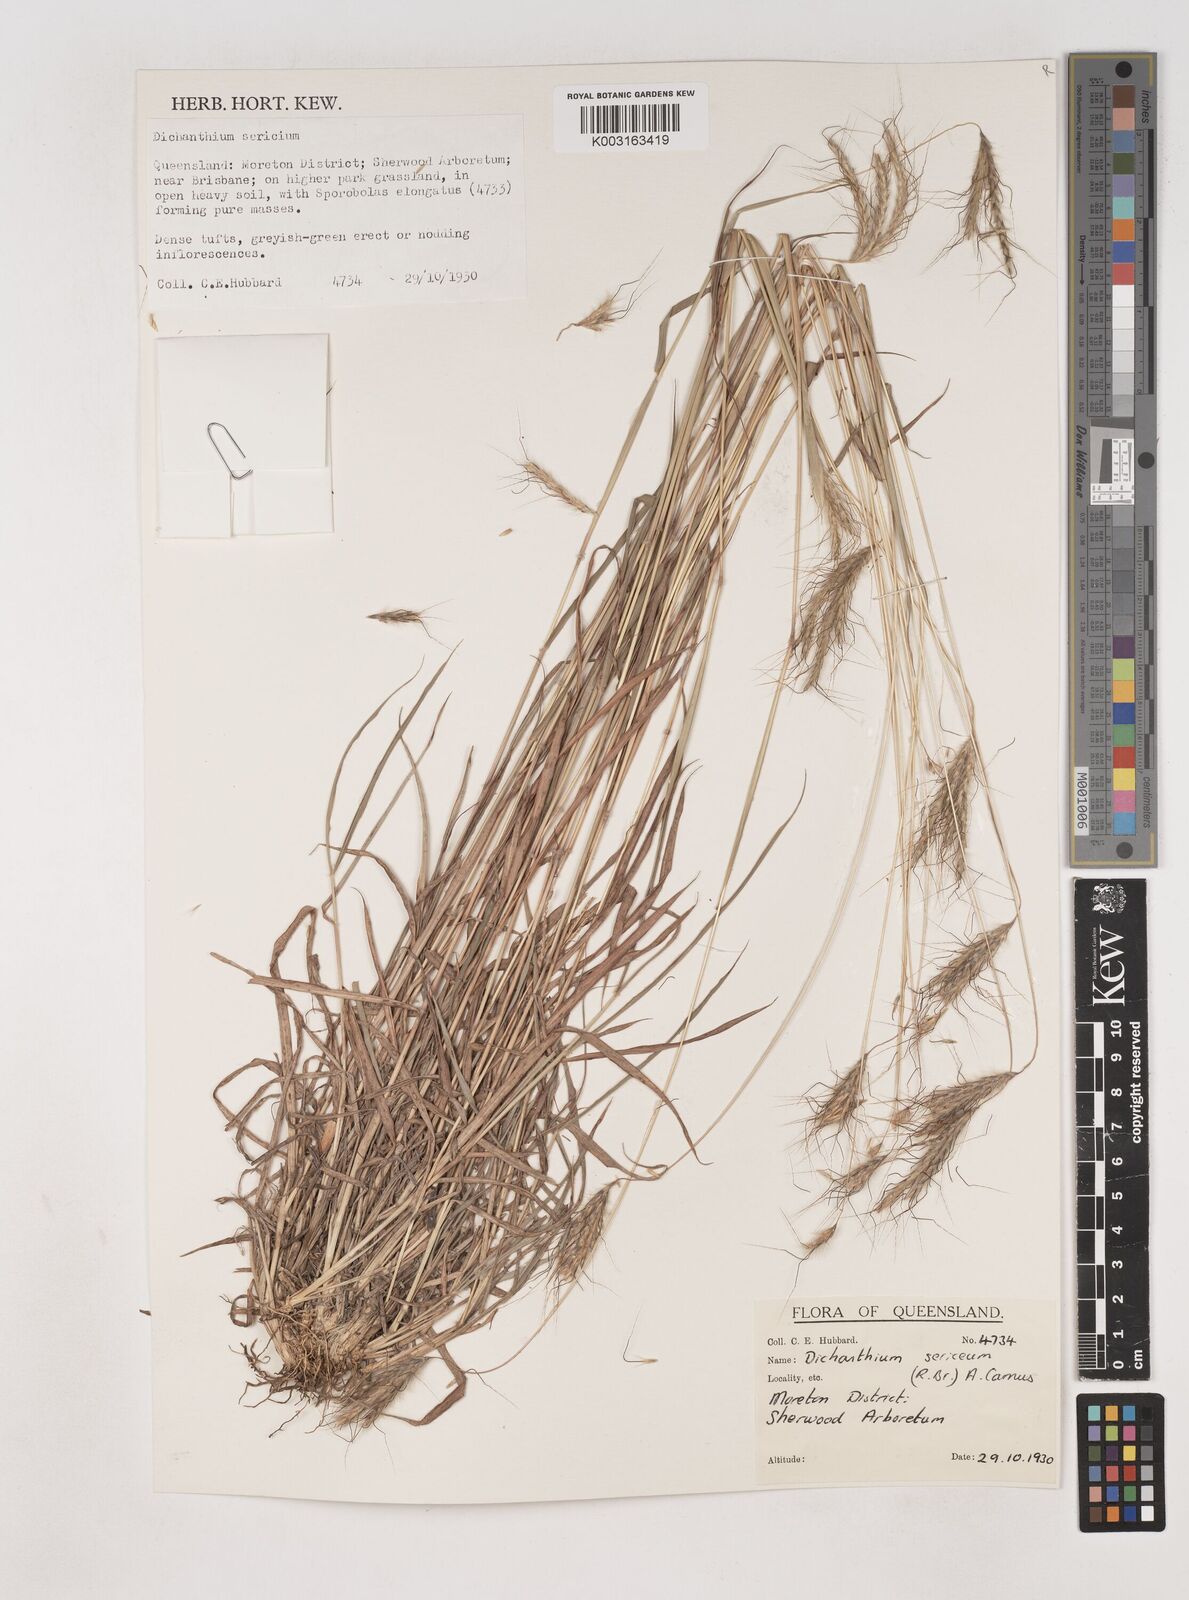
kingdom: Plantae
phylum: Tracheophyta
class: Liliopsida
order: Poales
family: Poaceae
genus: Dichanthium
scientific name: Dichanthium sericeum
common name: Silky bluestem
